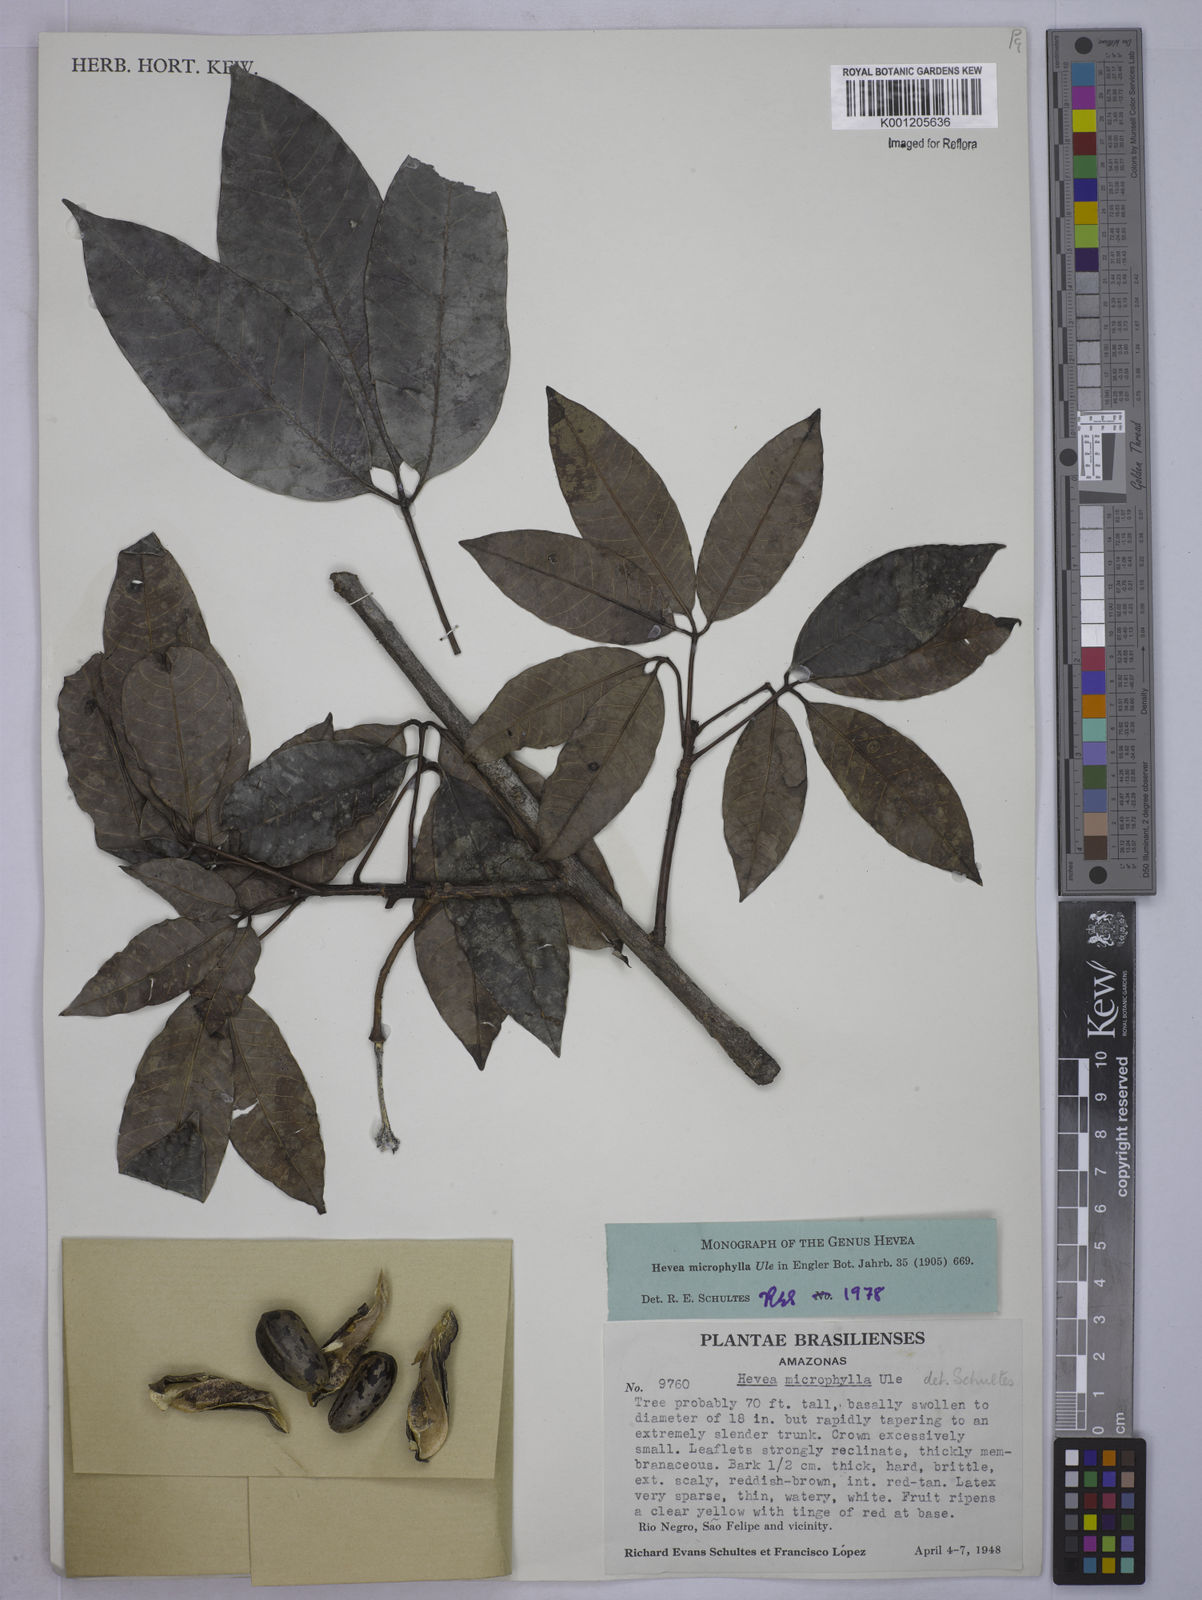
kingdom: Plantae
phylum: Tracheophyta
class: Magnoliopsida
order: Malpighiales
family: Euphorbiaceae
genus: Hevea
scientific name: Hevea microphylla
